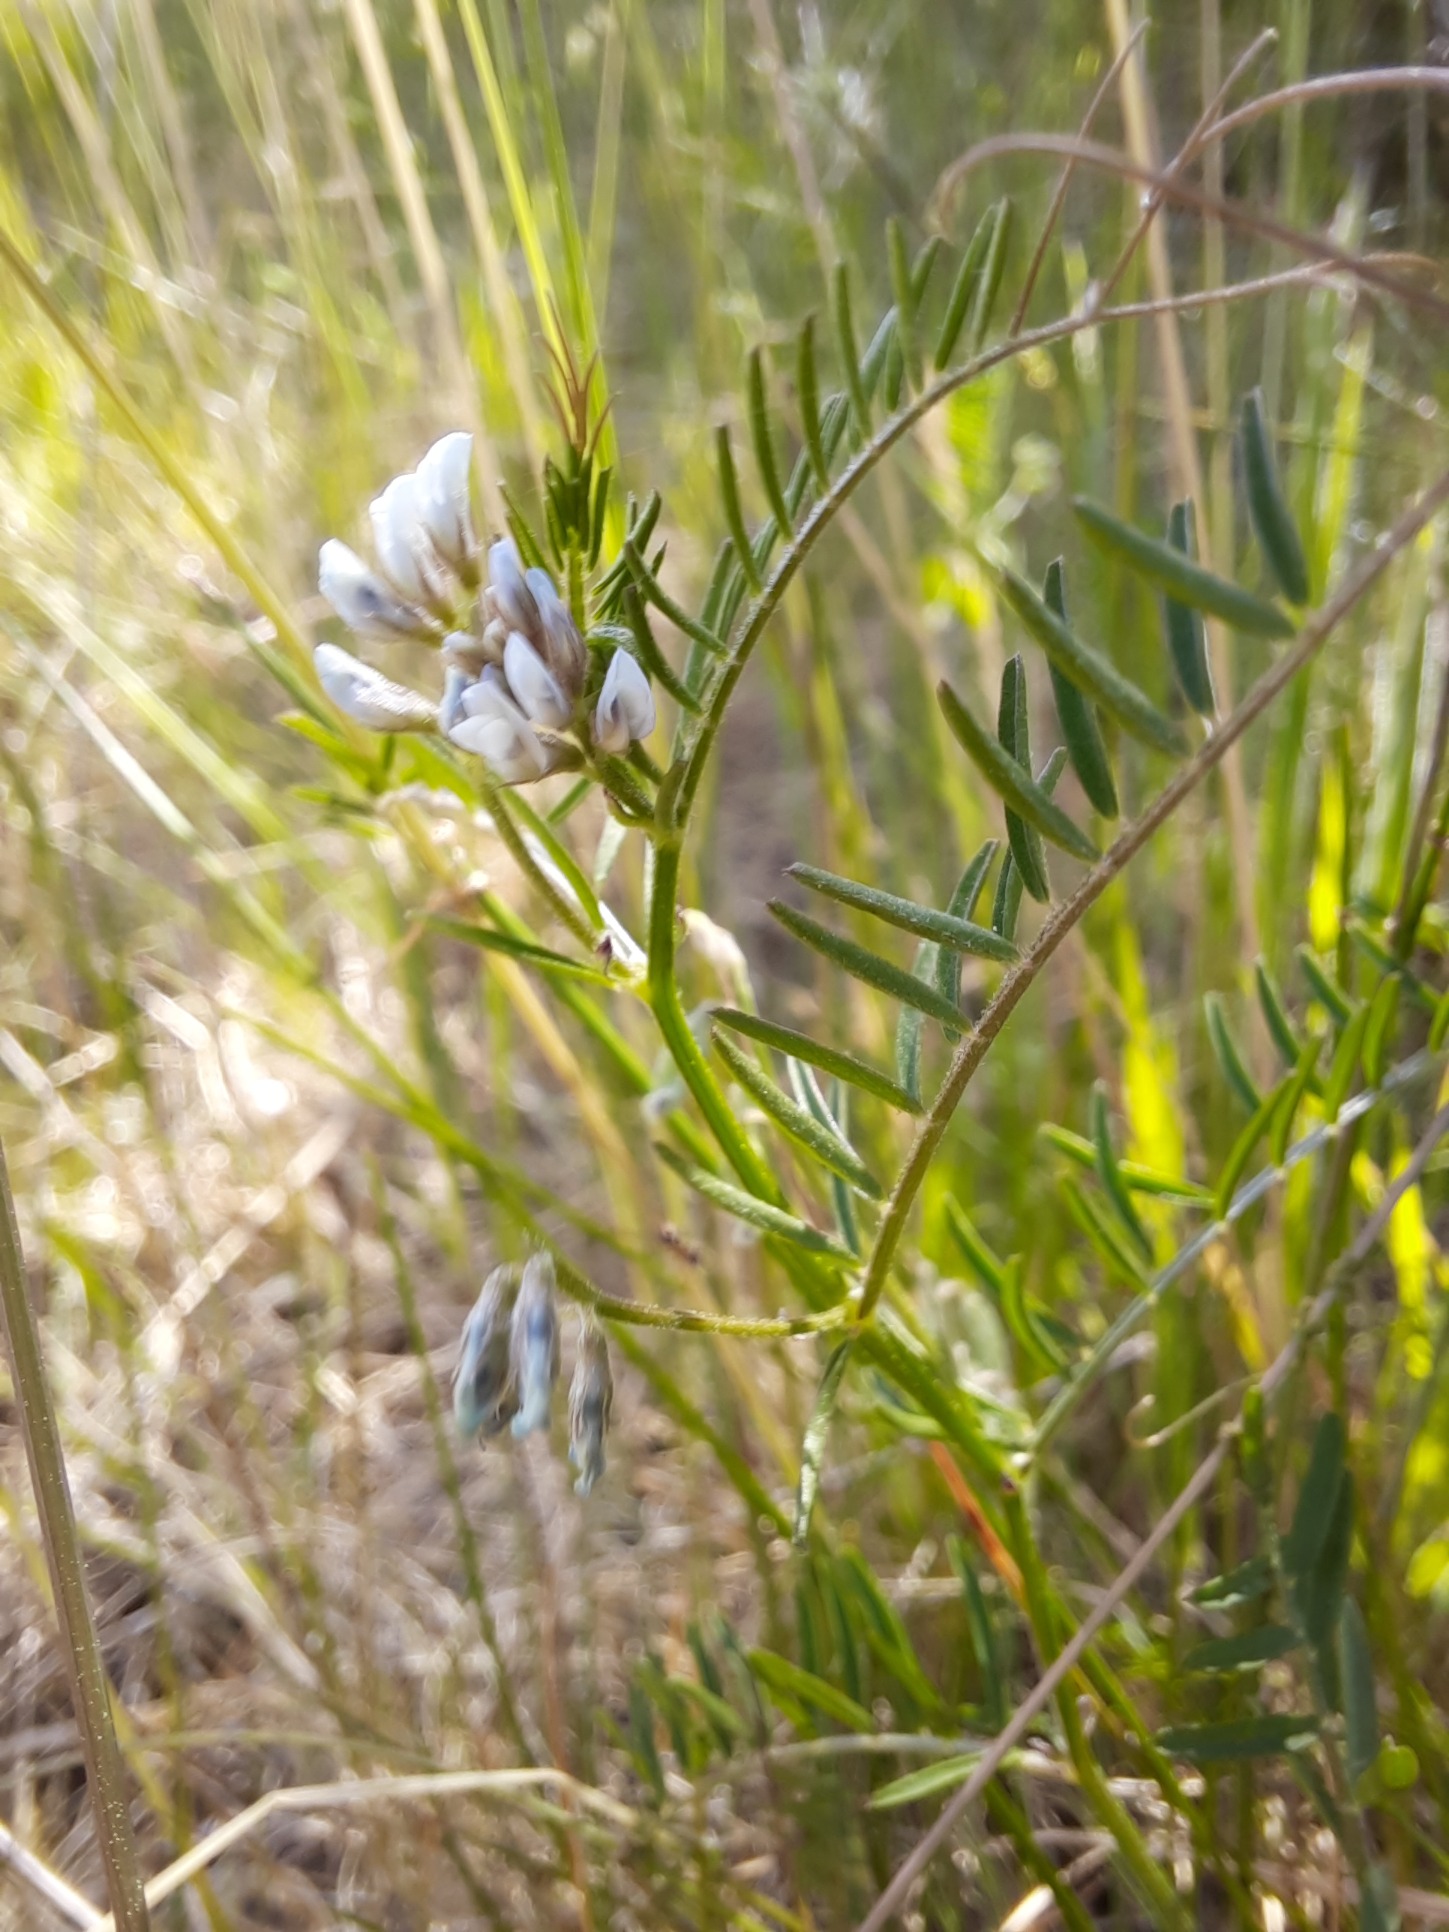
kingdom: Plantae
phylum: Tracheophyta
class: Magnoliopsida
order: Fabales
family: Fabaceae
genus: Vicia
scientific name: Vicia hirsuta
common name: Tofrøet vikke
